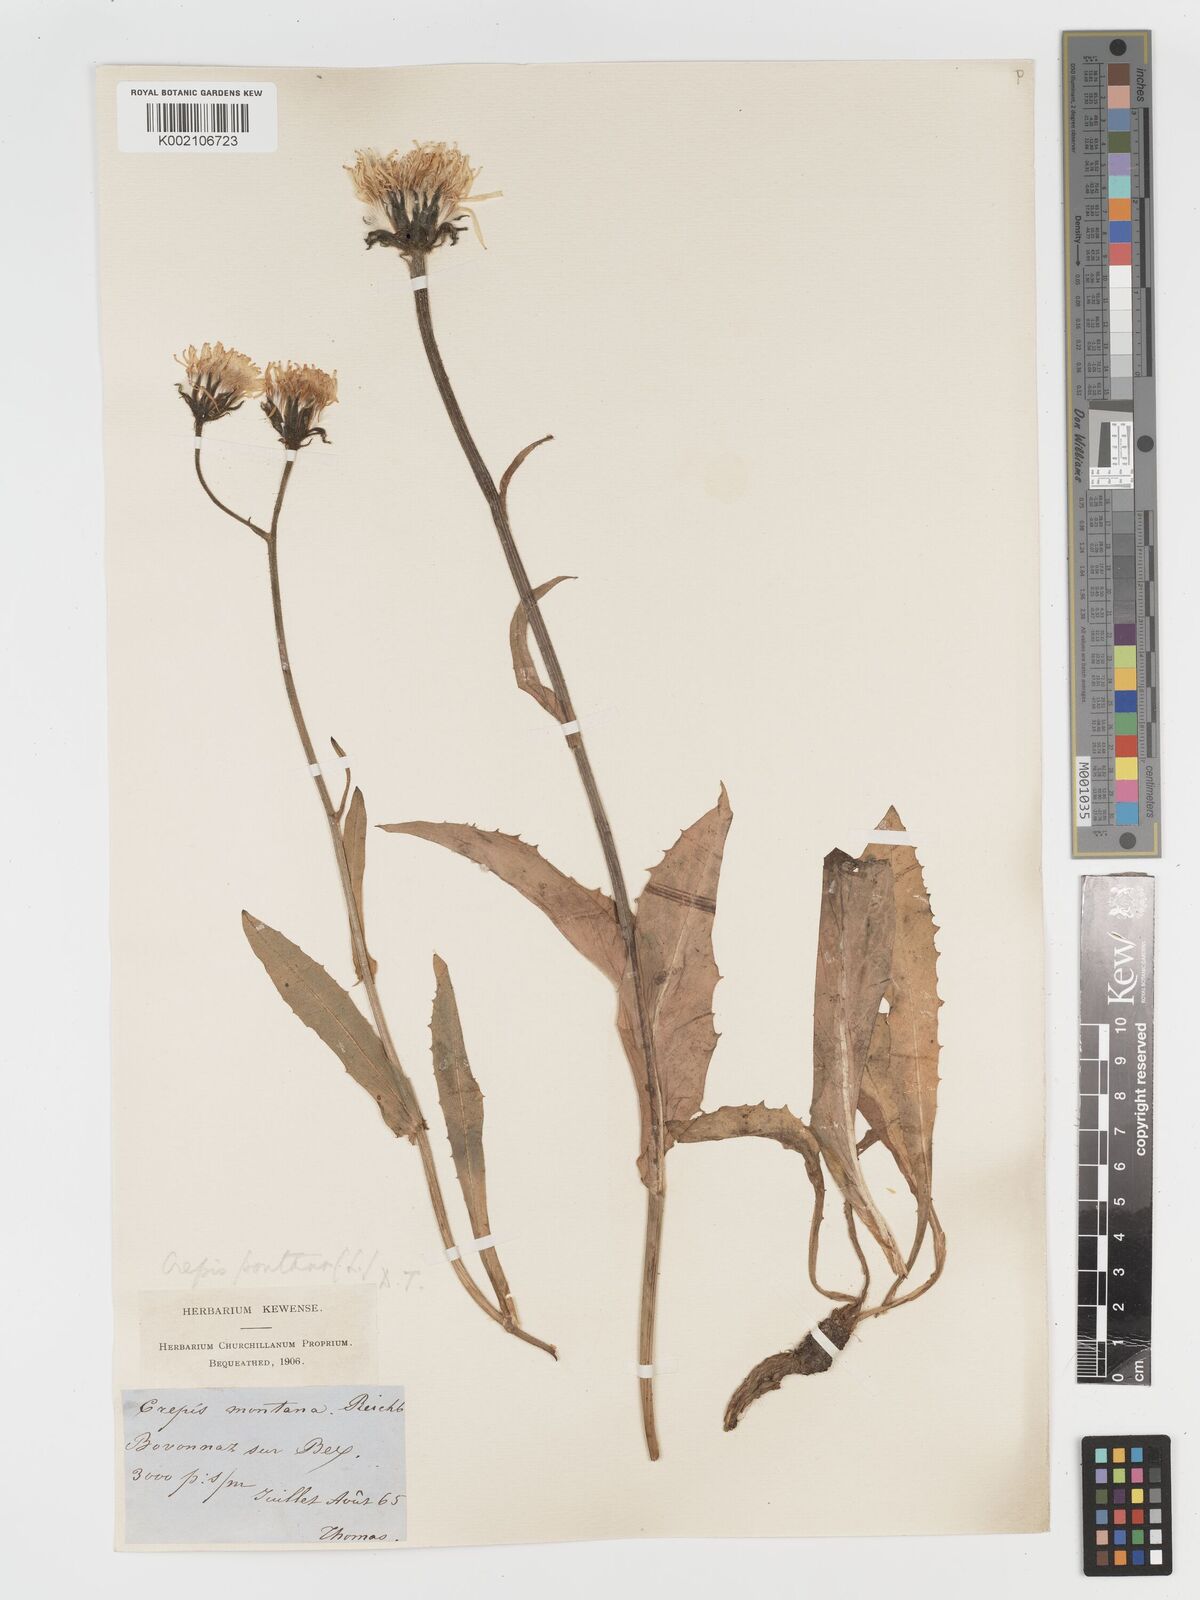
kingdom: Plantae
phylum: Tracheophyta
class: Magnoliopsida
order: Asterales
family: Asteraceae
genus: Crepis
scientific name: Crepis pontana
